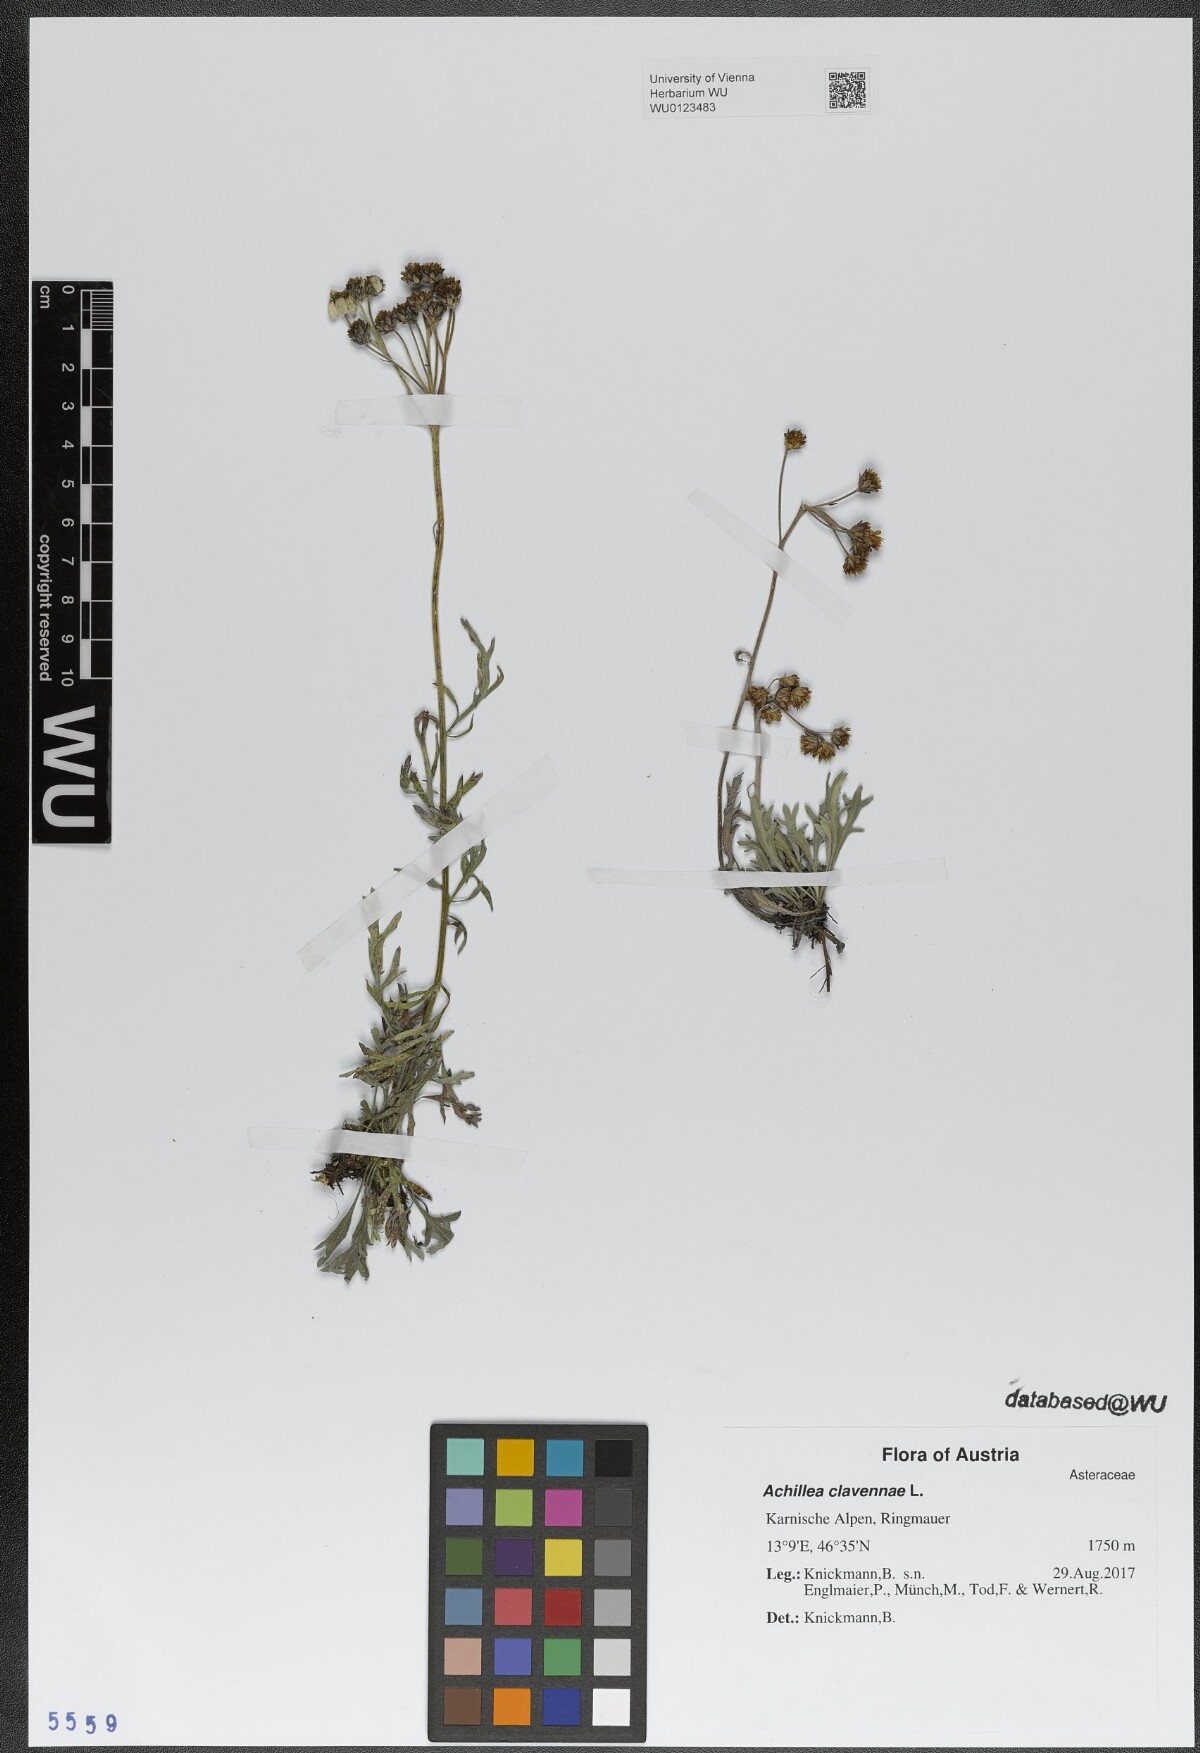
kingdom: Plantae
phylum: Tracheophyta
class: Magnoliopsida
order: Asterales
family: Asteraceae
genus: Achillea
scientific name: Achillea clavennae
